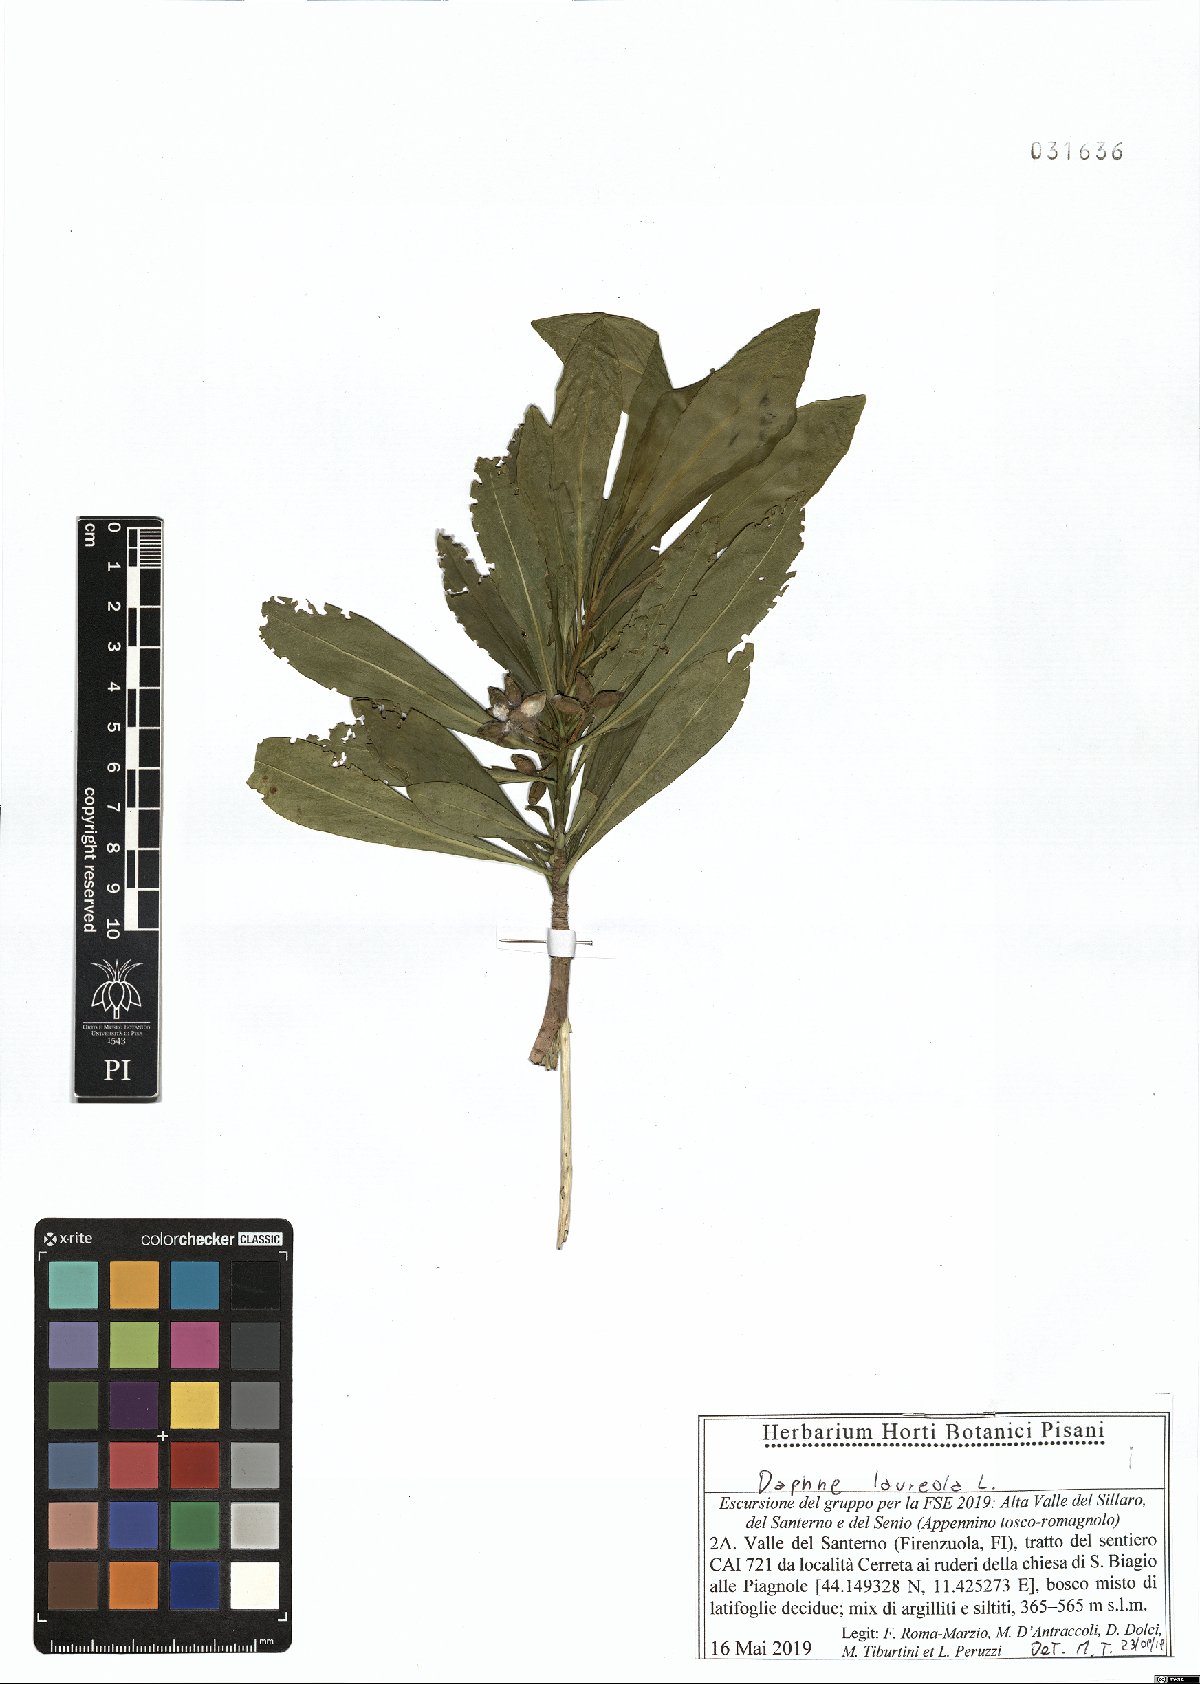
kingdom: Plantae
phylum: Tracheophyta
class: Magnoliopsida
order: Malvales
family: Thymelaeaceae
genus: Daphne
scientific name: Daphne laureola
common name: Spurge-laurel
